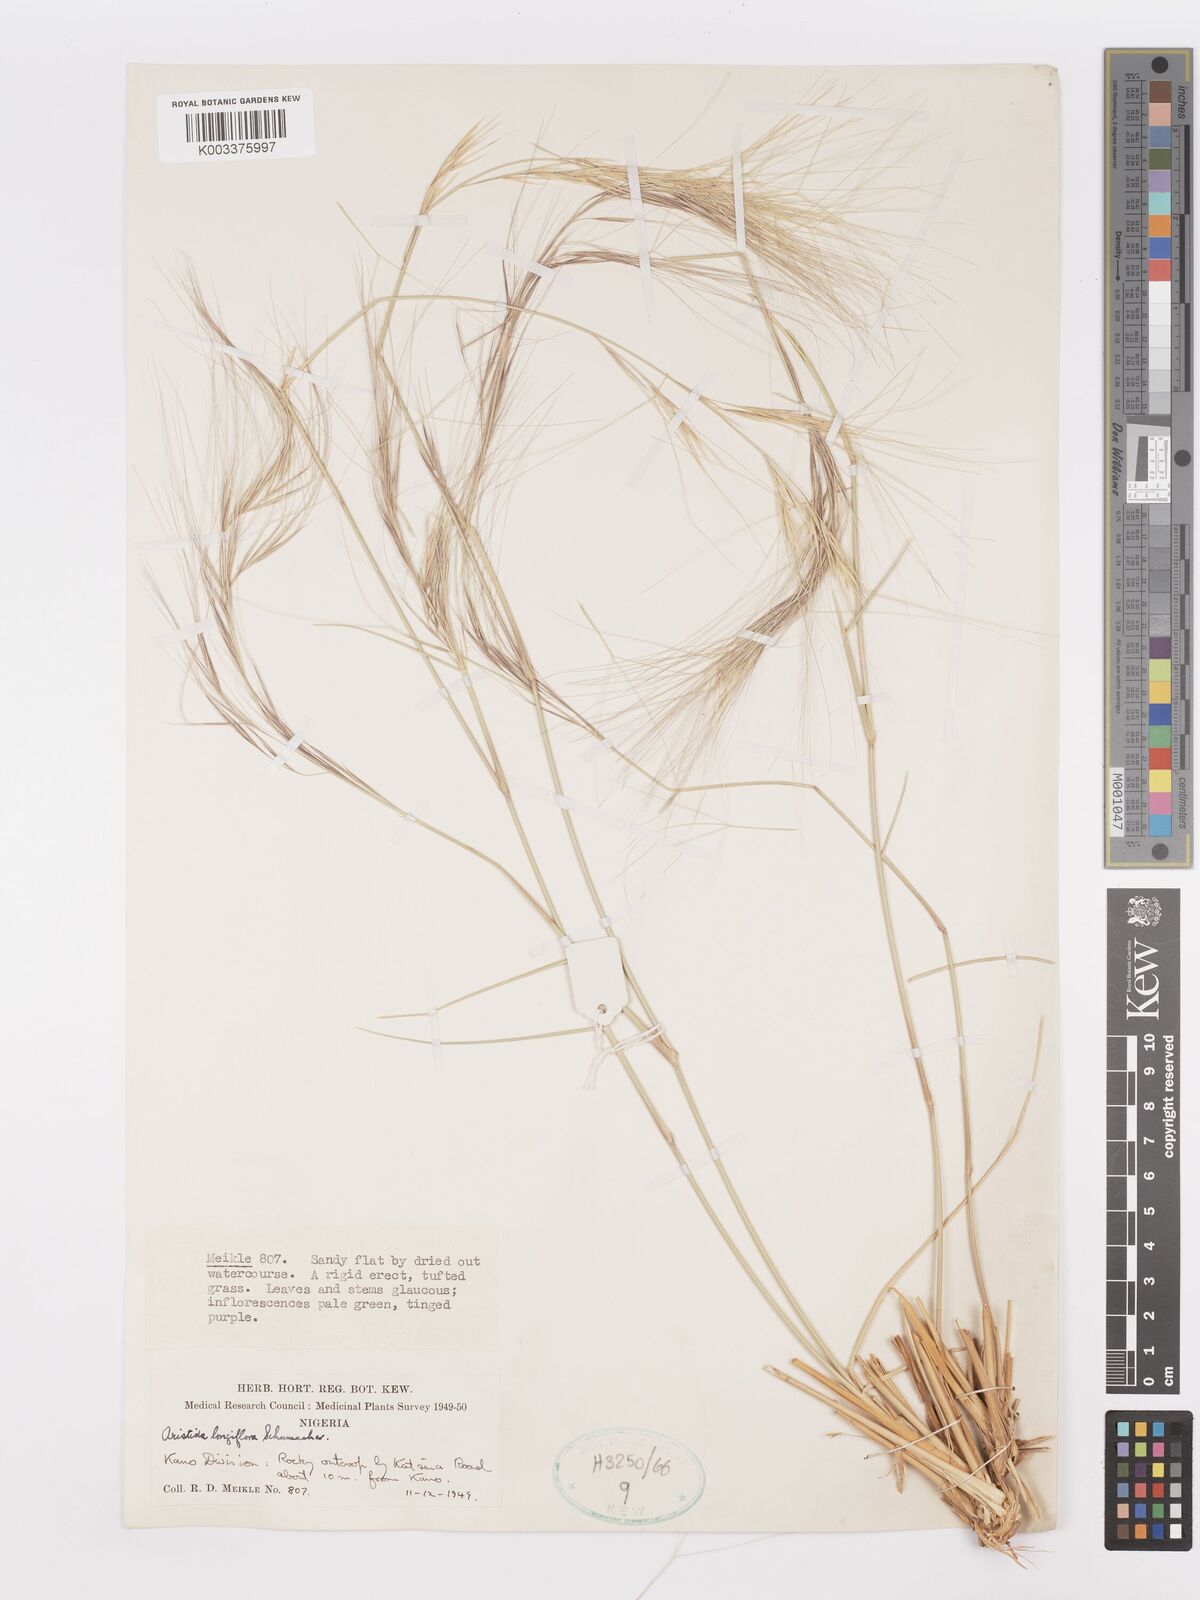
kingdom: Plantae
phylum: Tracheophyta
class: Liliopsida
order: Poales
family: Poaceae
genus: Aristida
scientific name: Aristida sieberiana
